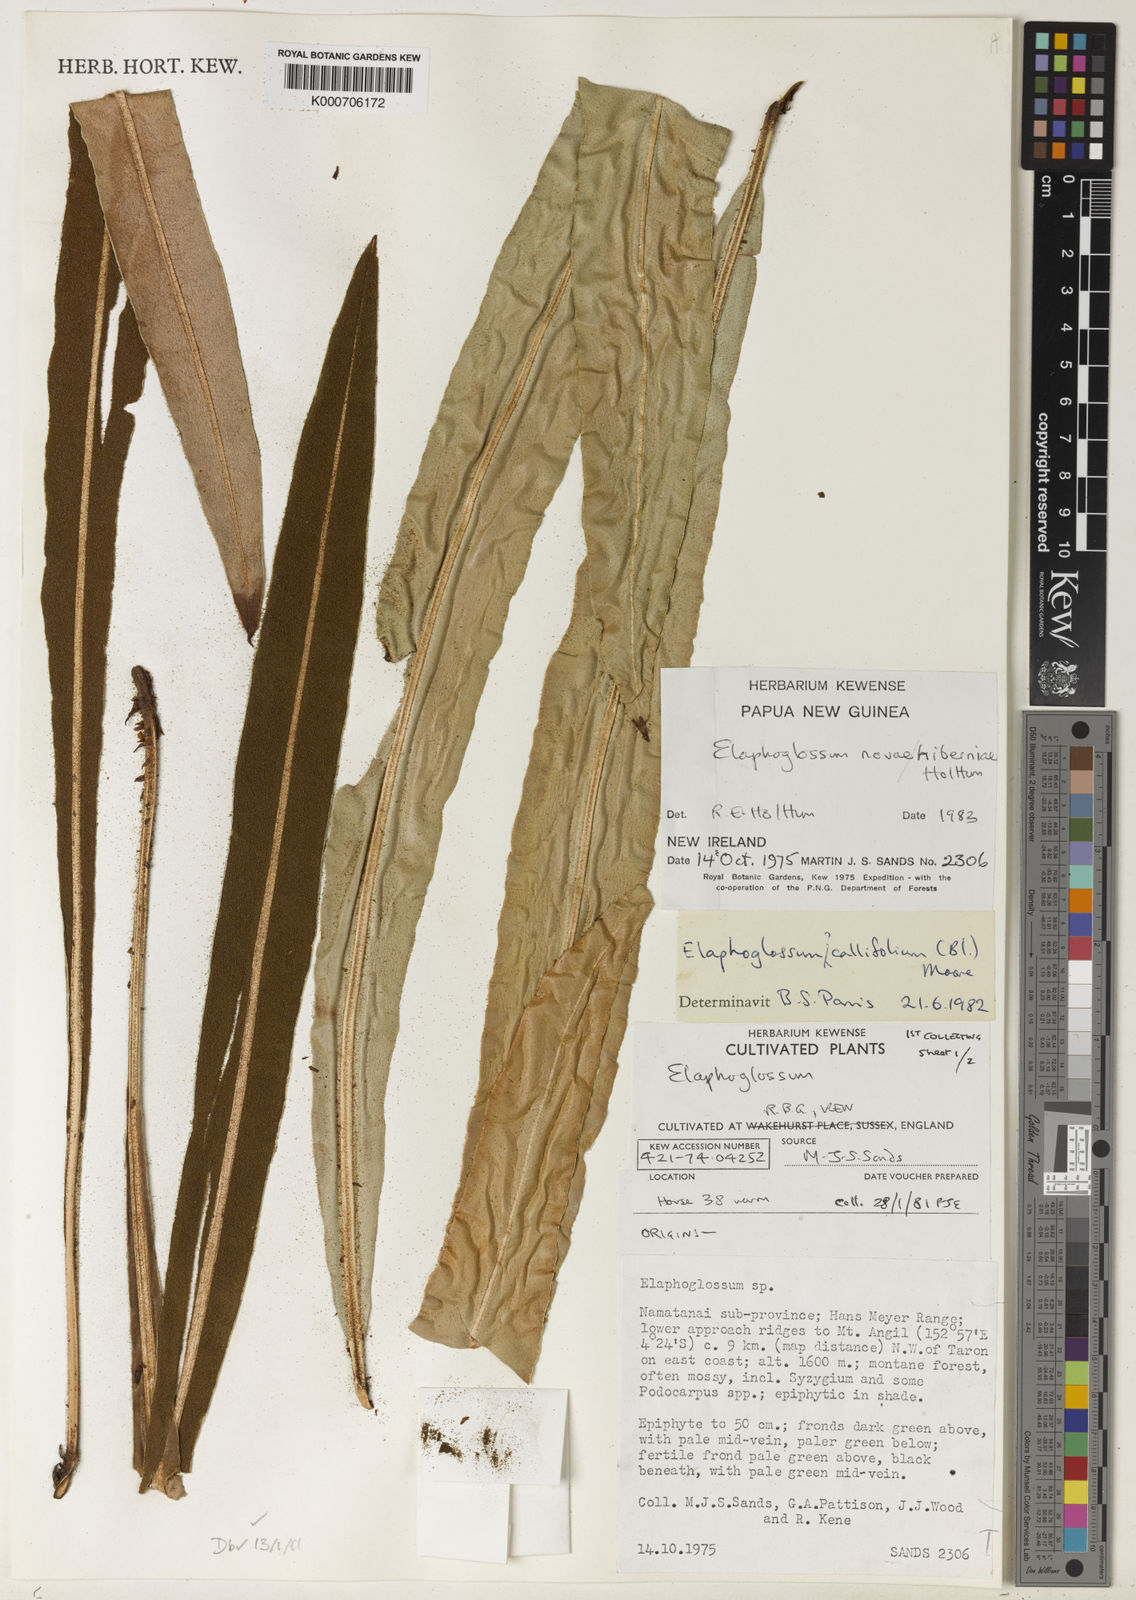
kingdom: Plantae
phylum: Tracheophyta
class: Polypodiopsida
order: Polypodiales
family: Dryopteridaceae
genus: Elaphoglossum
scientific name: Elaphoglossum
